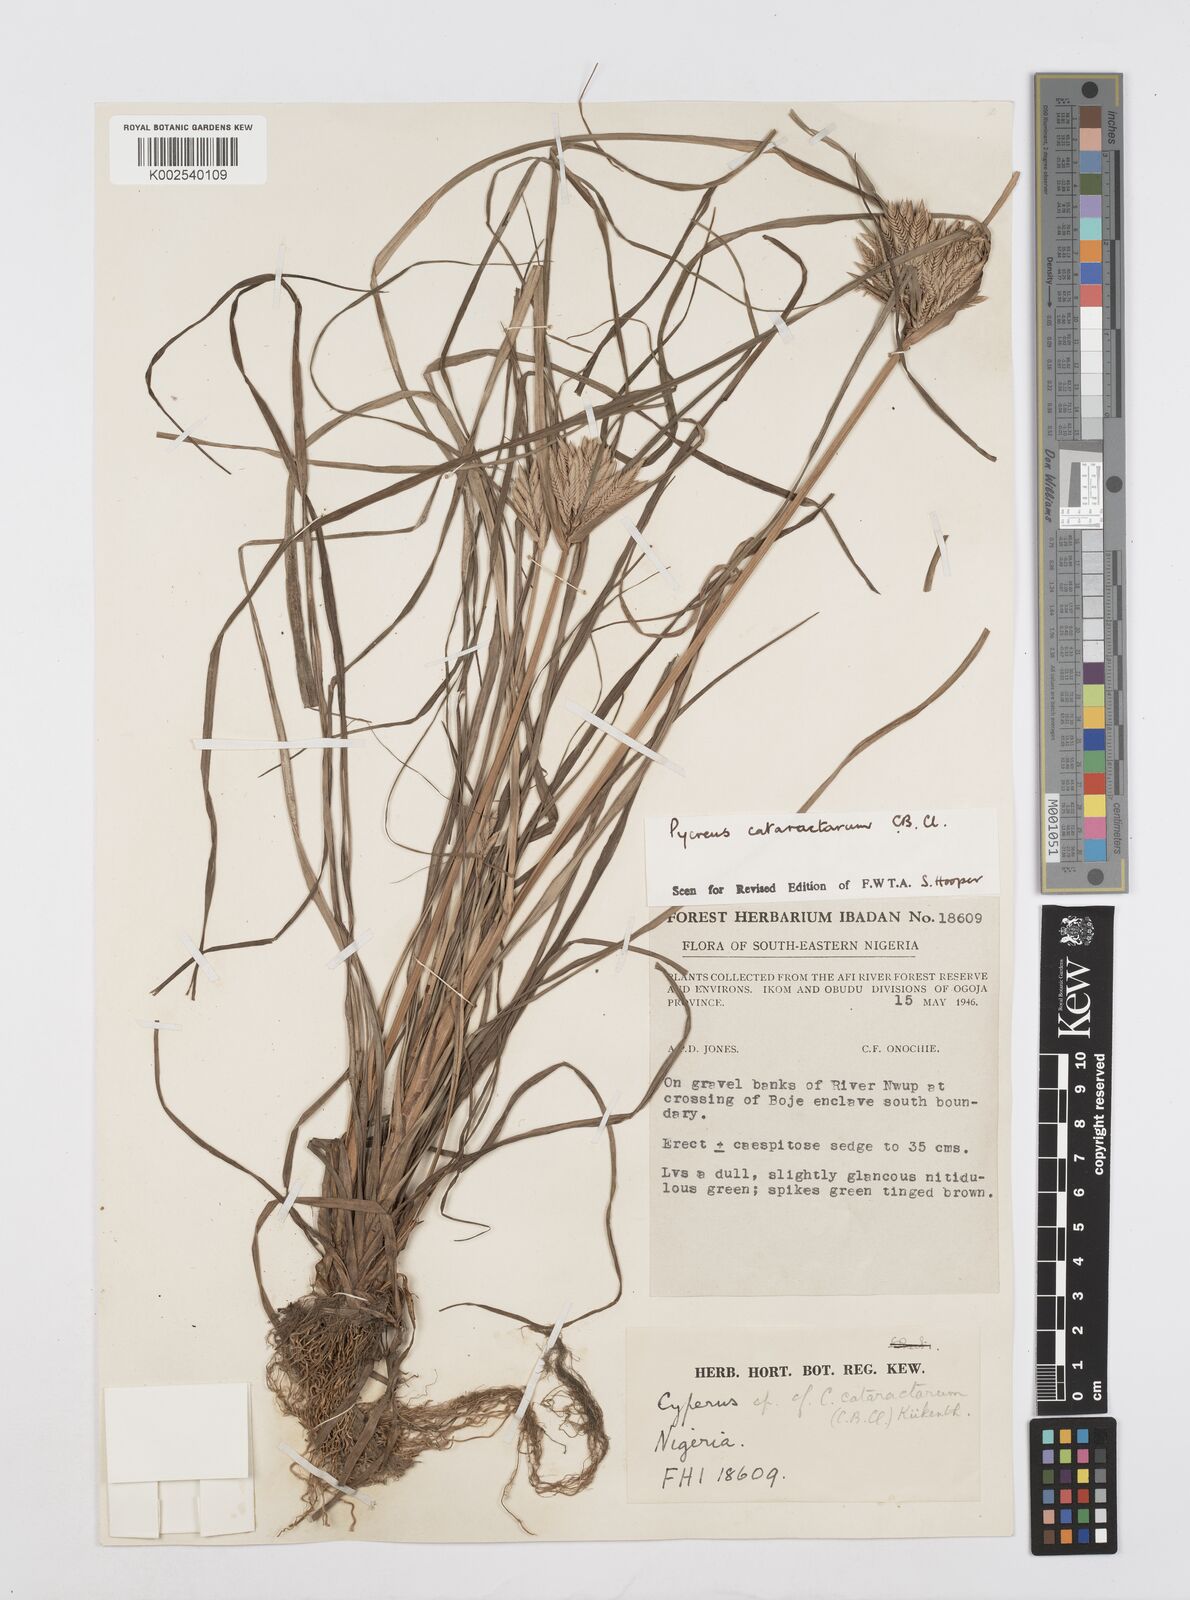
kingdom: Plantae
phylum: Tracheophyta
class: Liliopsida
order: Poales
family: Cyperaceae
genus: Cyperus
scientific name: Cyperus cataractarum
